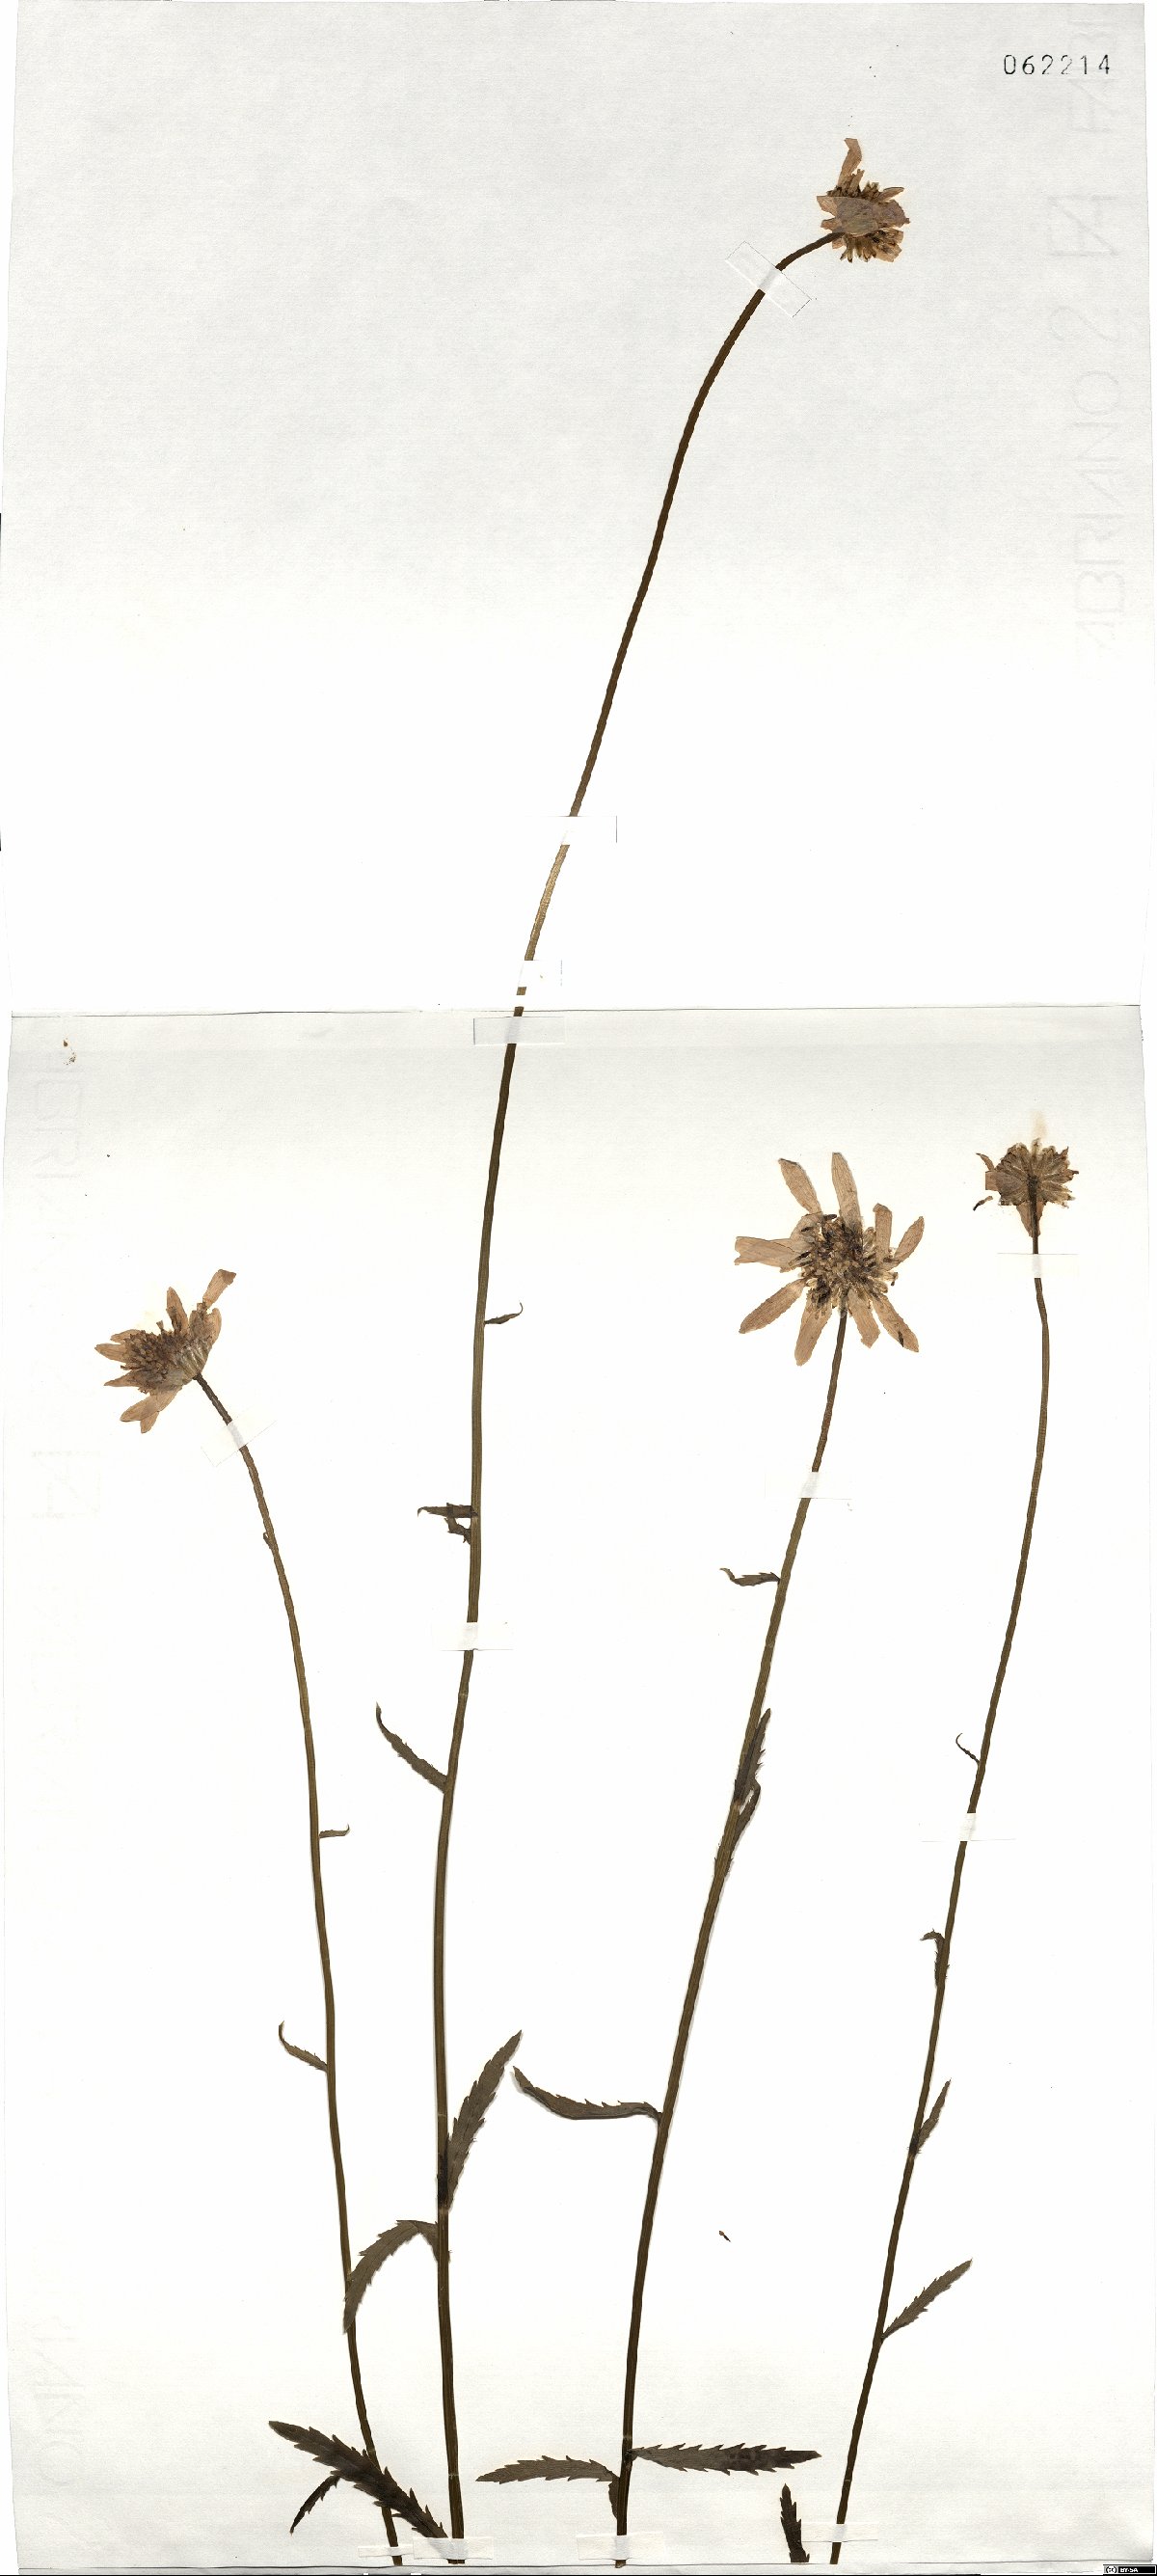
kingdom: Plantae
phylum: Tracheophyta
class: Magnoliopsida
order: Asterales
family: Asteraceae
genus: Leucanthemum
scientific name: Leucanthemum ircutianum
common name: Daisy
